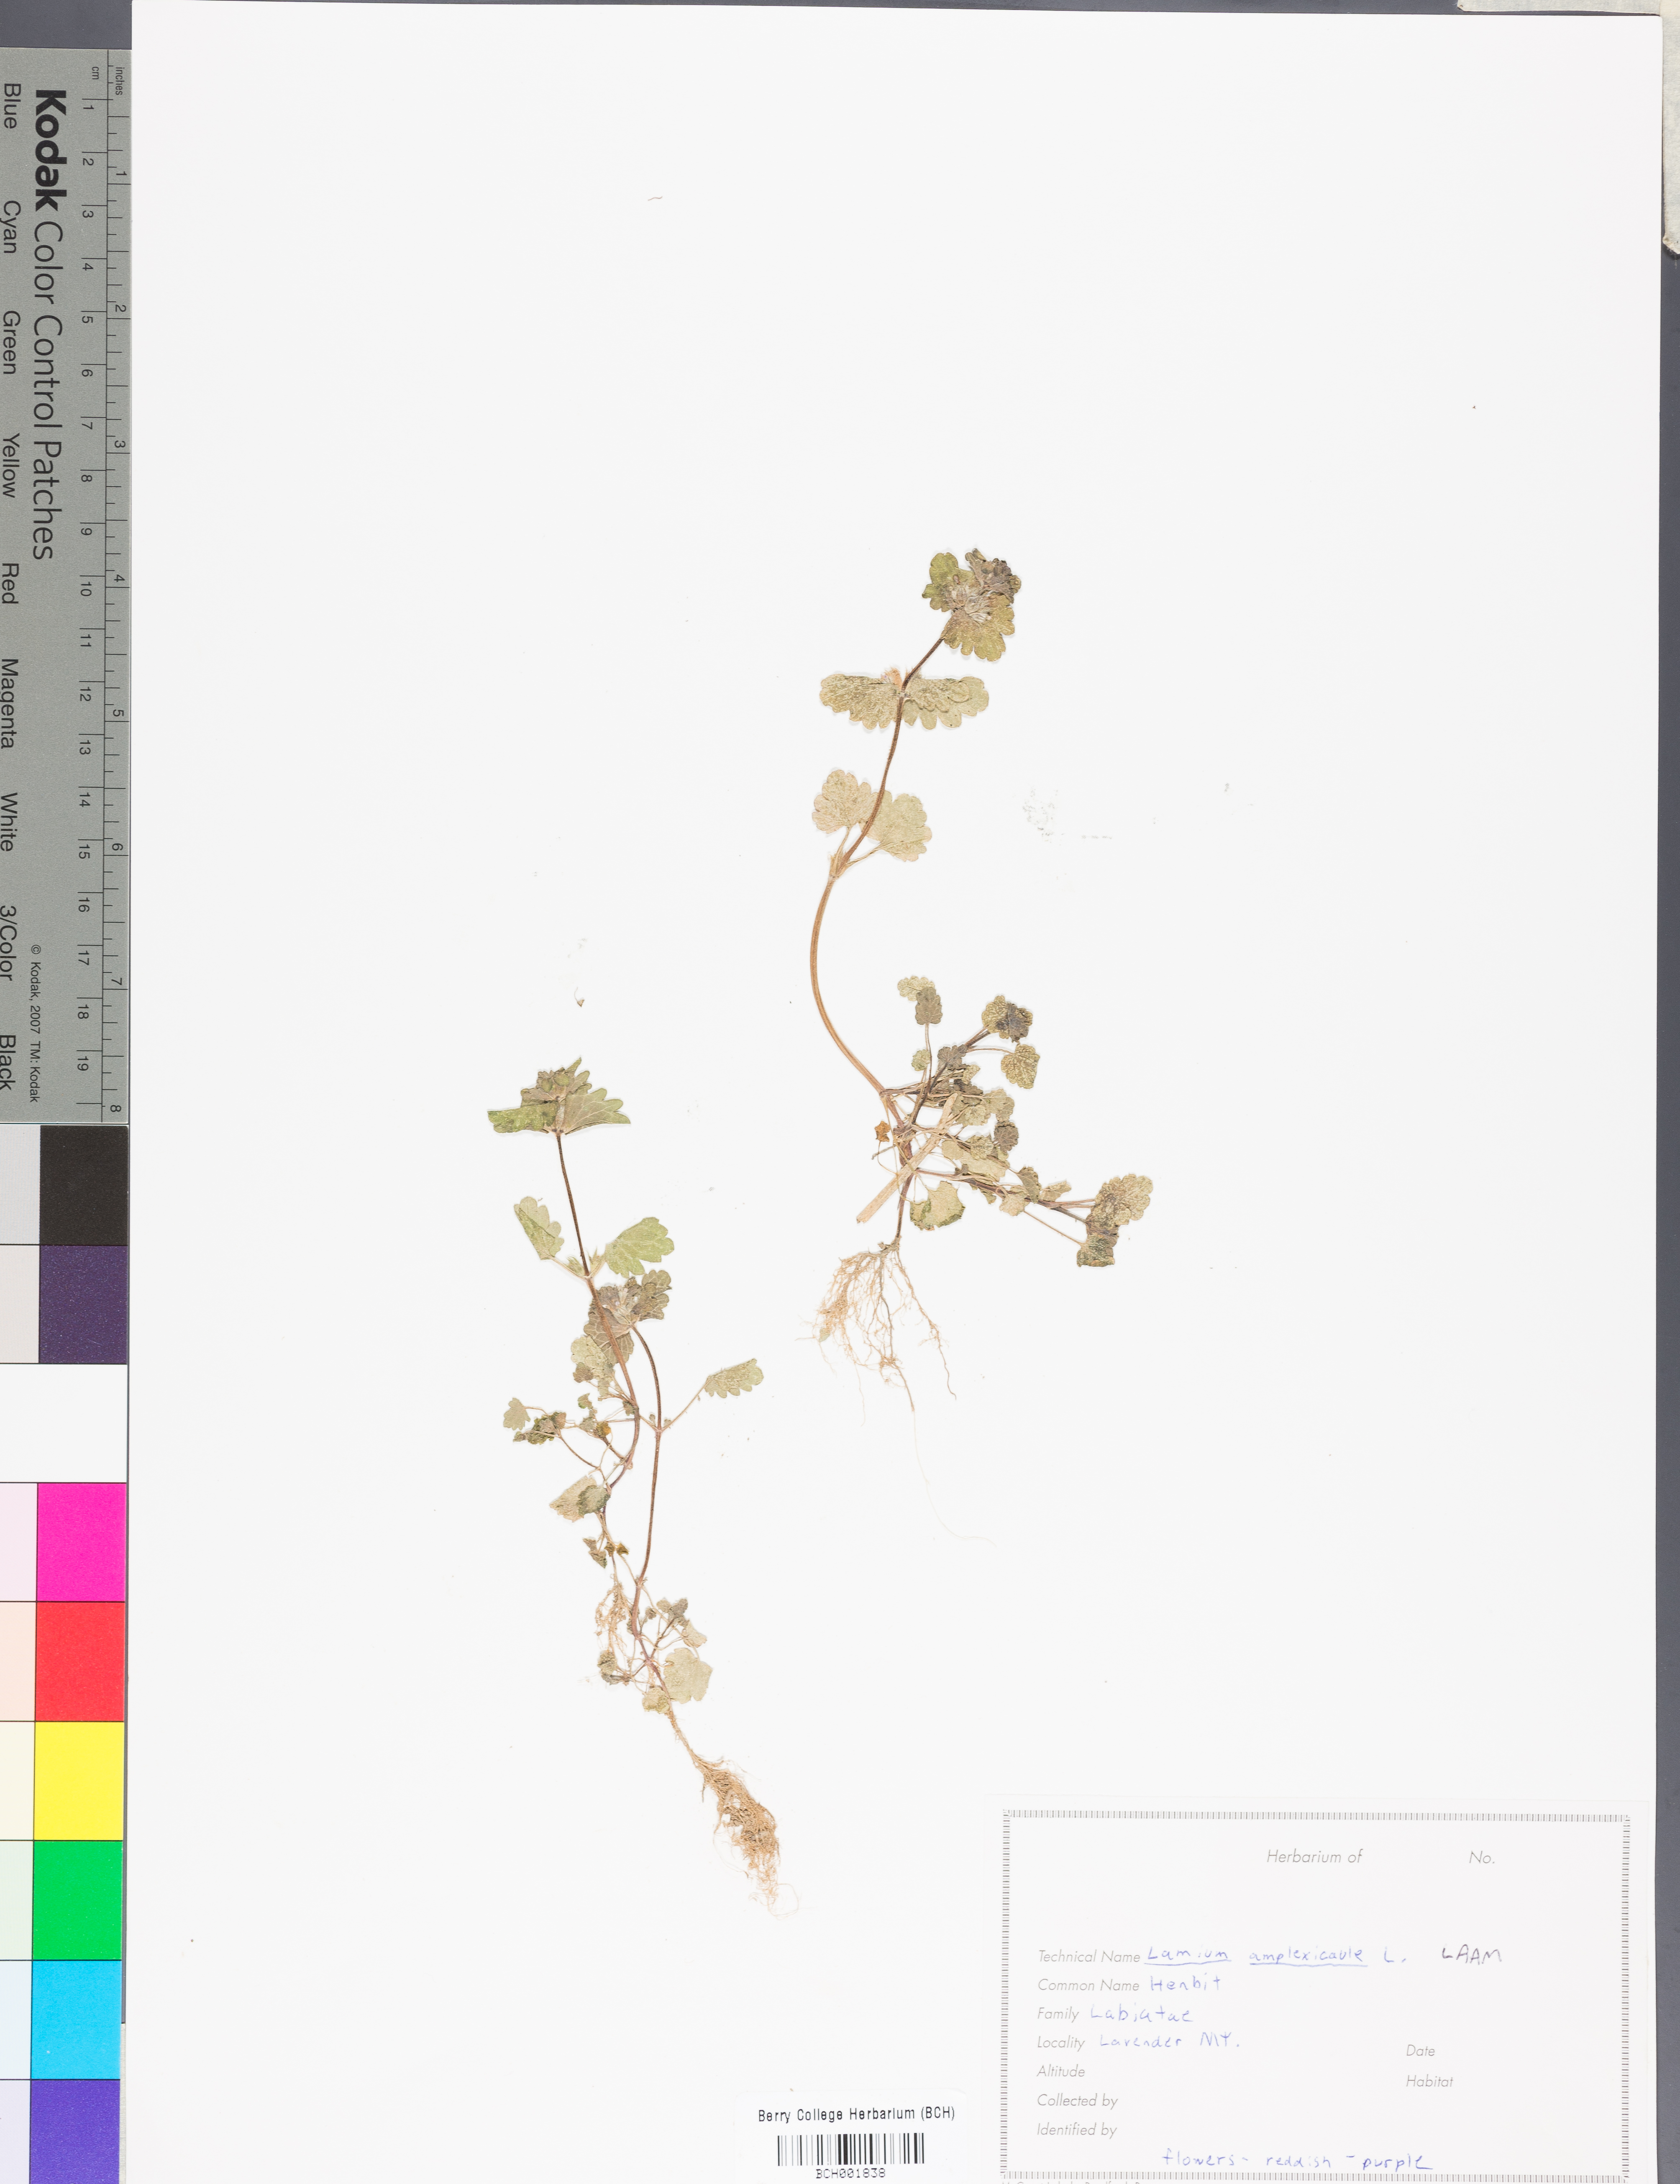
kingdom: Plantae
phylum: Tracheophyta
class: Magnoliopsida
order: Lamiales
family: Lamiaceae
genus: Lamium
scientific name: Lamium amplexicaule
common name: Henbit dead-nettle
